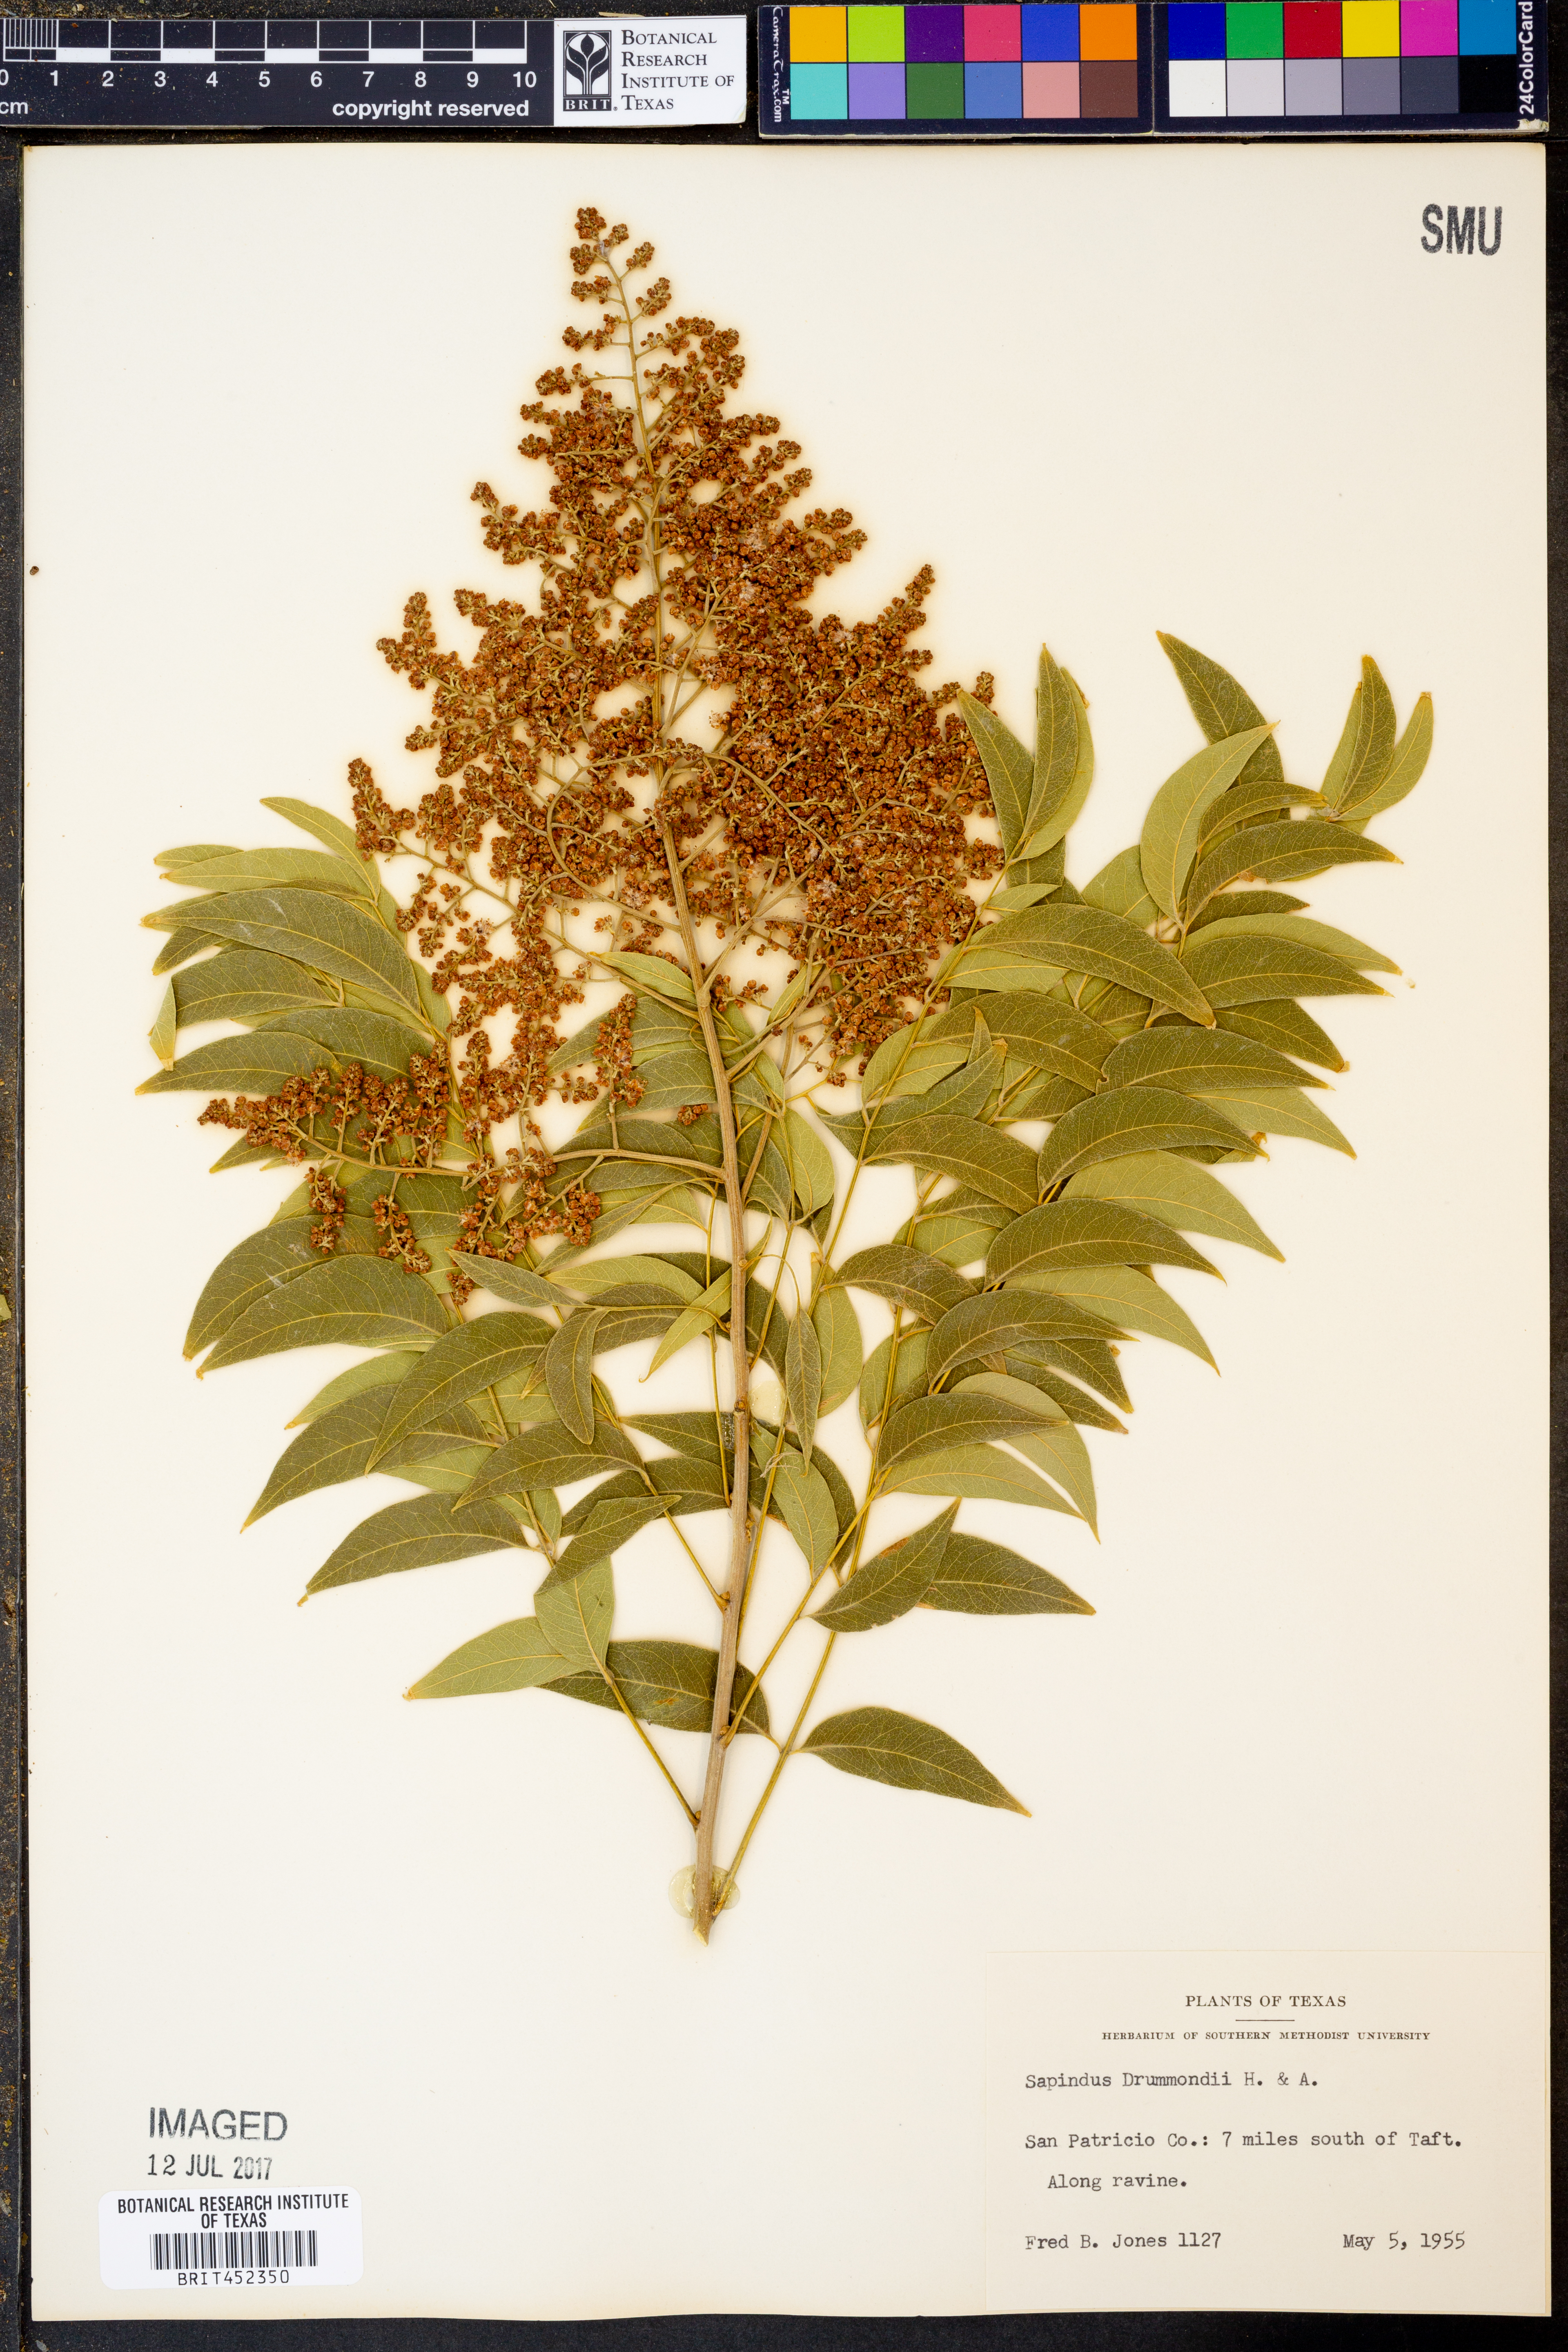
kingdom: Plantae
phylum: Tracheophyta
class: Magnoliopsida
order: Sapindales
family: Sapindaceae
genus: Sapindus
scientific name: Sapindus drummondii
